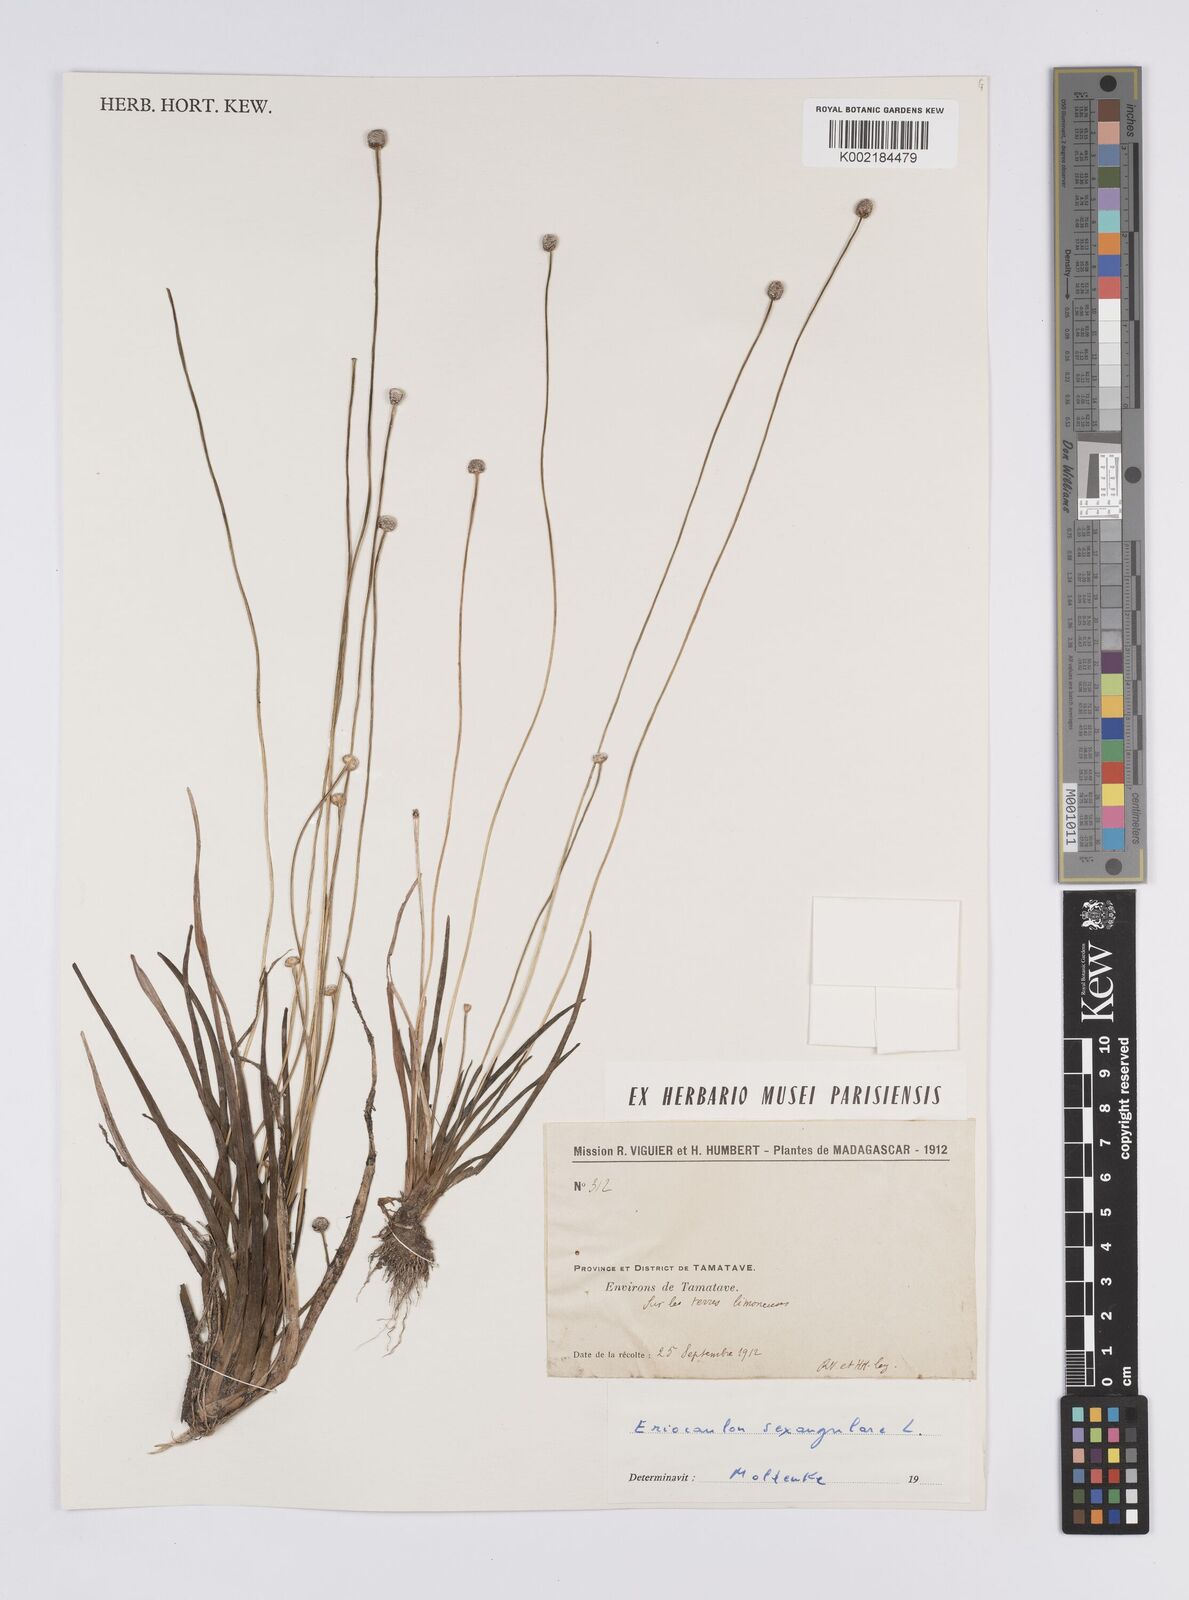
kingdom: Plantae
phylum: Tracheophyta
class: Liliopsida
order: Poales
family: Eriocaulaceae
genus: Eriocaulon
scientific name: Eriocaulon willdenovianum
